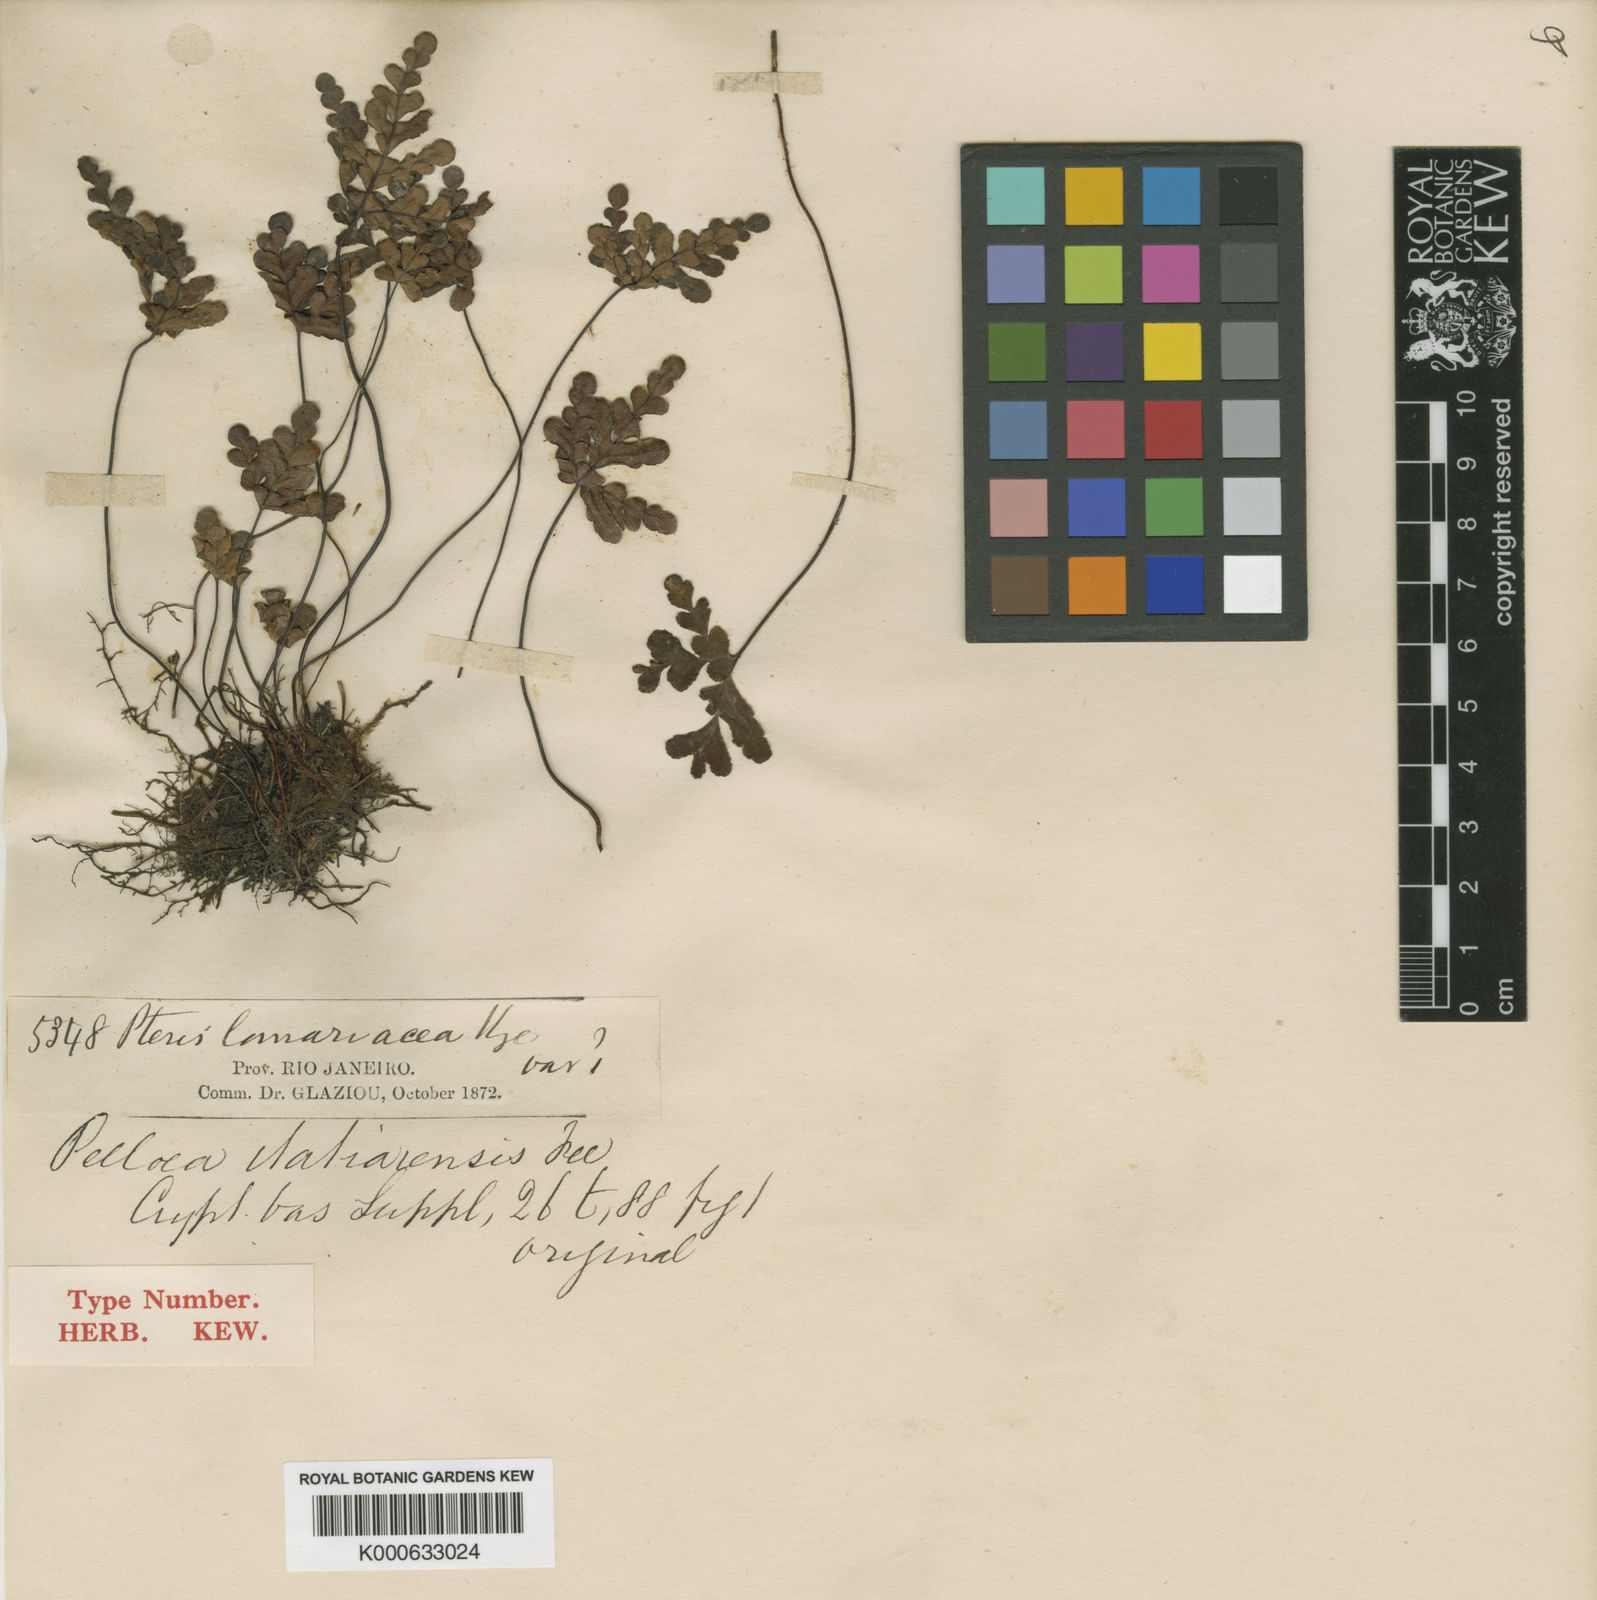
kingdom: Plantae
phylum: Tracheophyta
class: Polypodiopsida
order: Polypodiales
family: Pteridaceae
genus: Lytoneuron
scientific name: Lytoneuron itatiaiense
